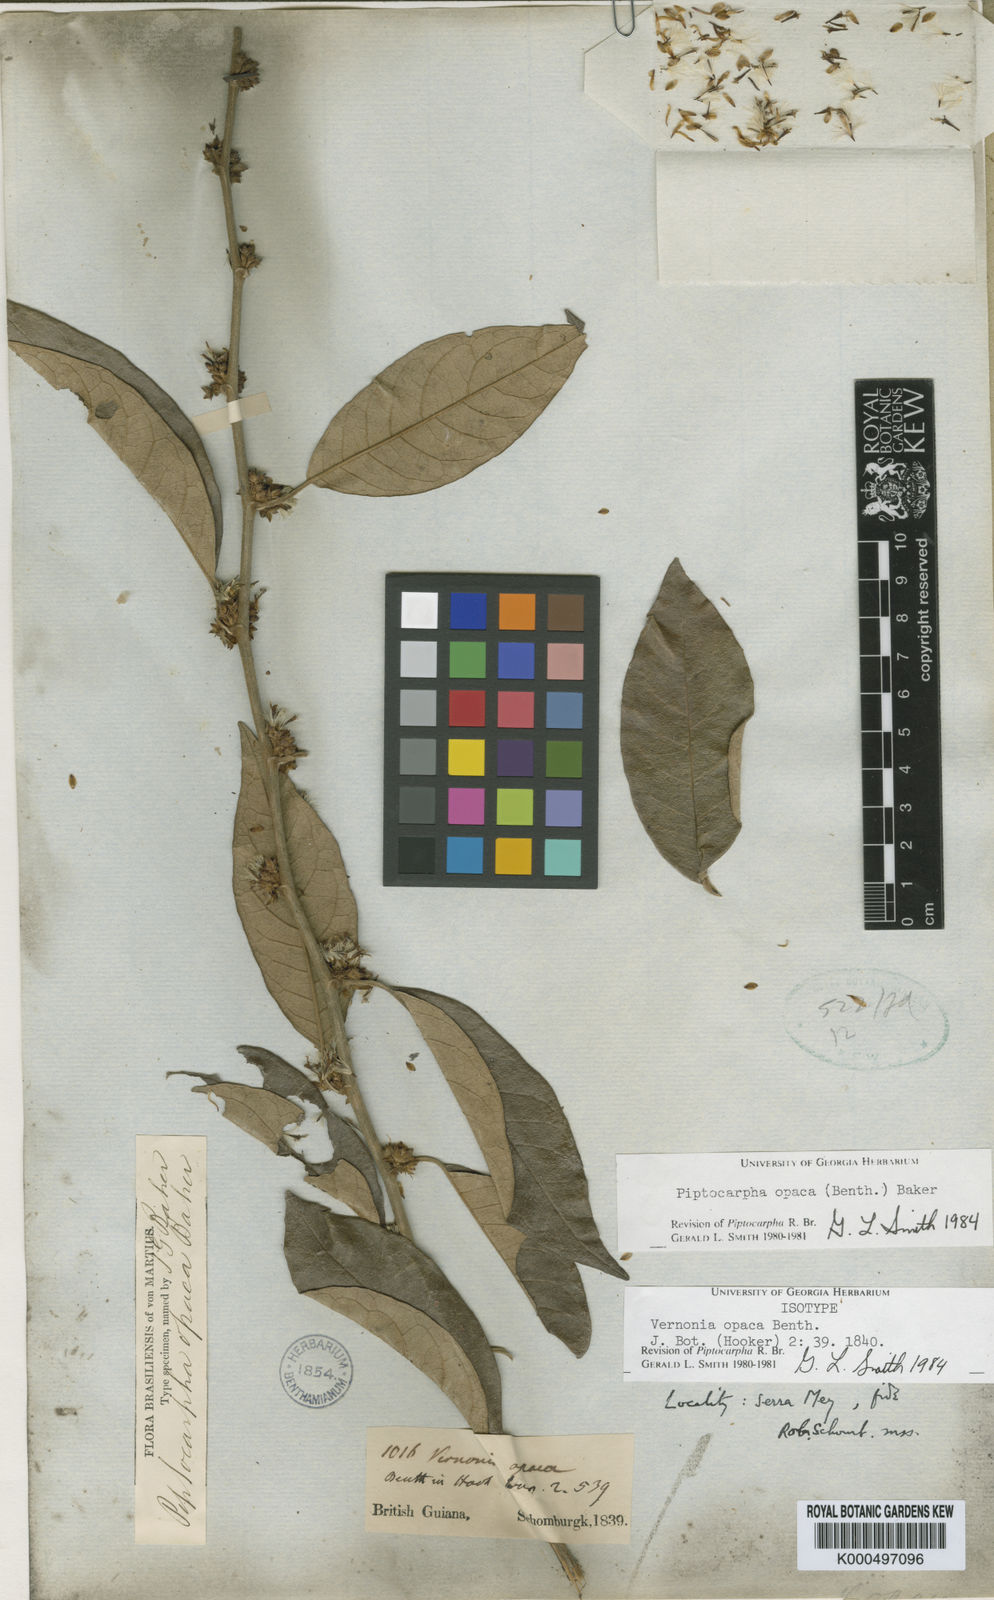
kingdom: Plantae
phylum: Tracheophyta
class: Magnoliopsida
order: Asterales
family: Asteraceae
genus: Piptocarpha
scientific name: Piptocarpha opaca
